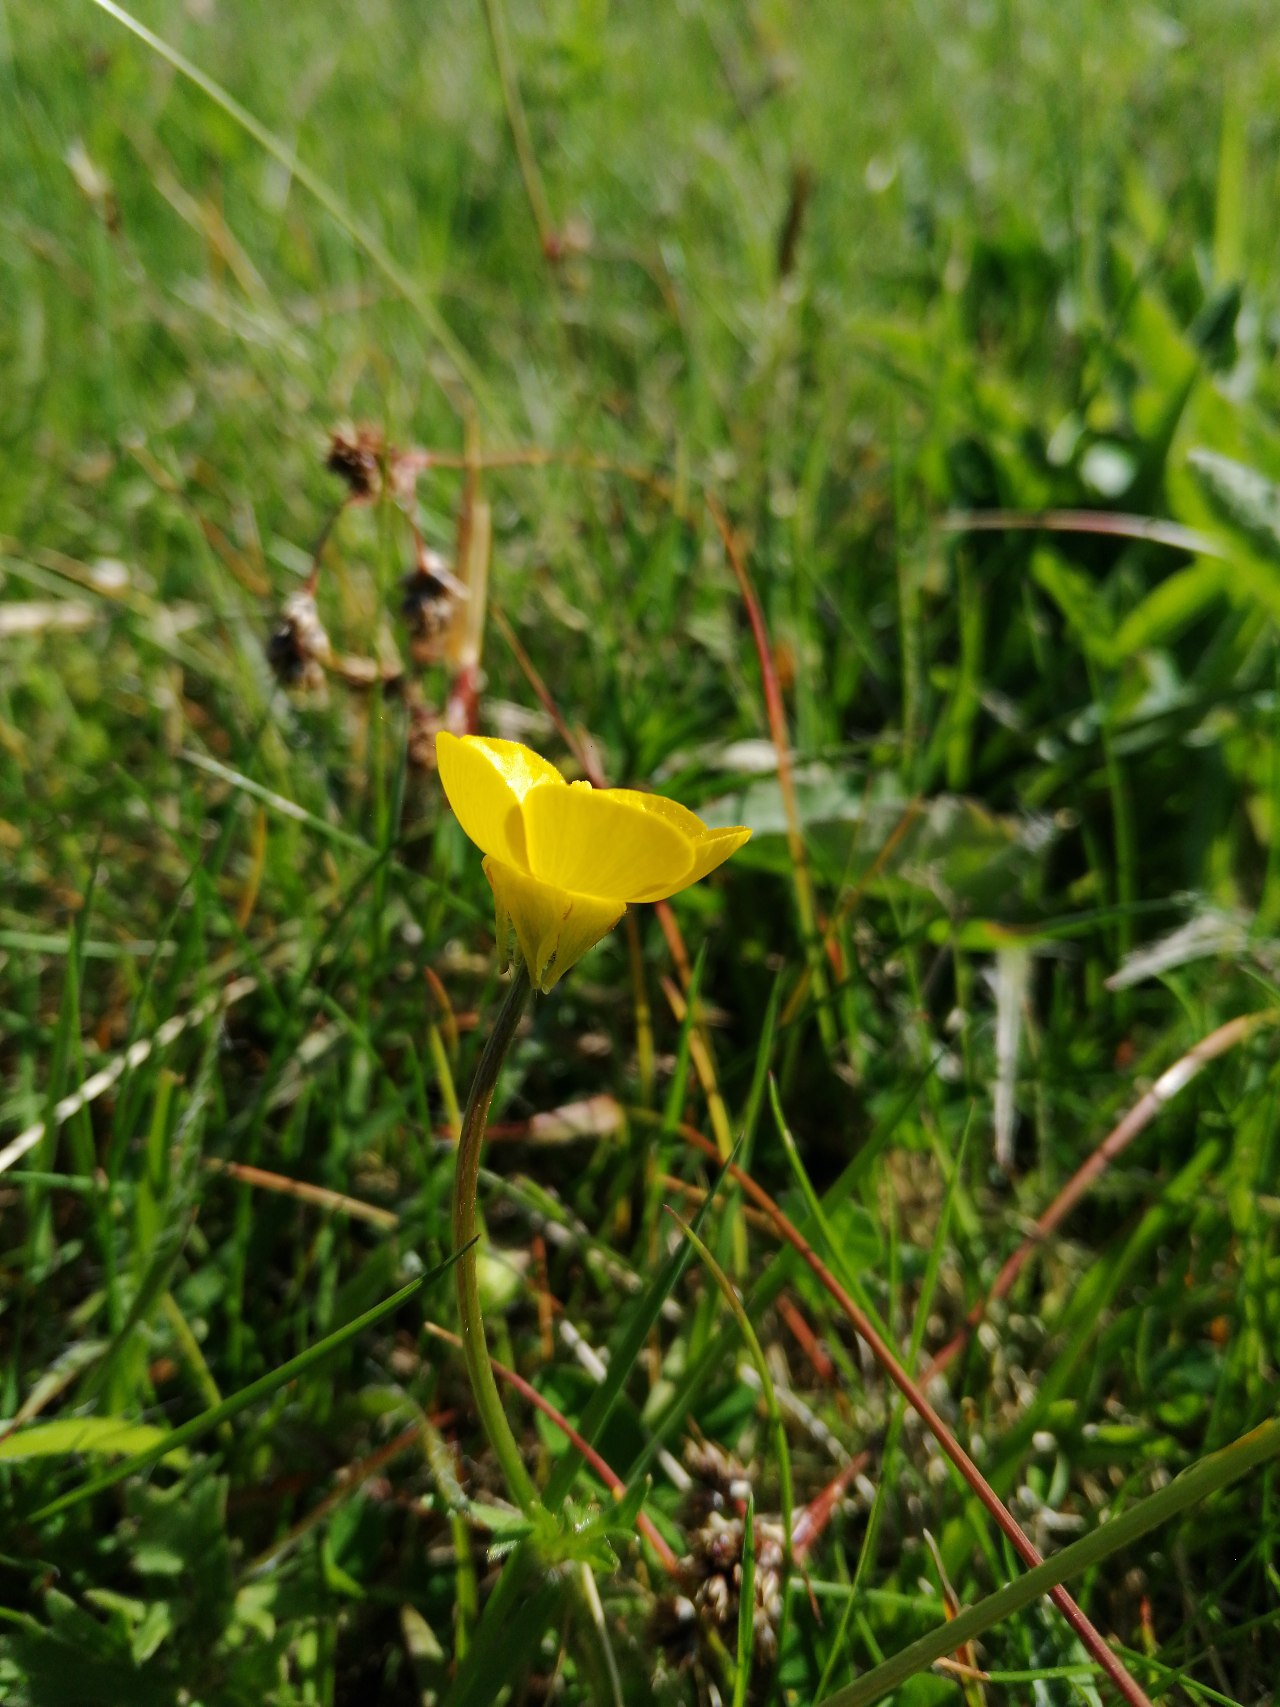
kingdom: Plantae
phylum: Tracheophyta
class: Magnoliopsida
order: Ranunculales
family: Ranunculaceae
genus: Ranunculus
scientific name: Ranunculus bulbosus
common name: Knold-ranunkel
